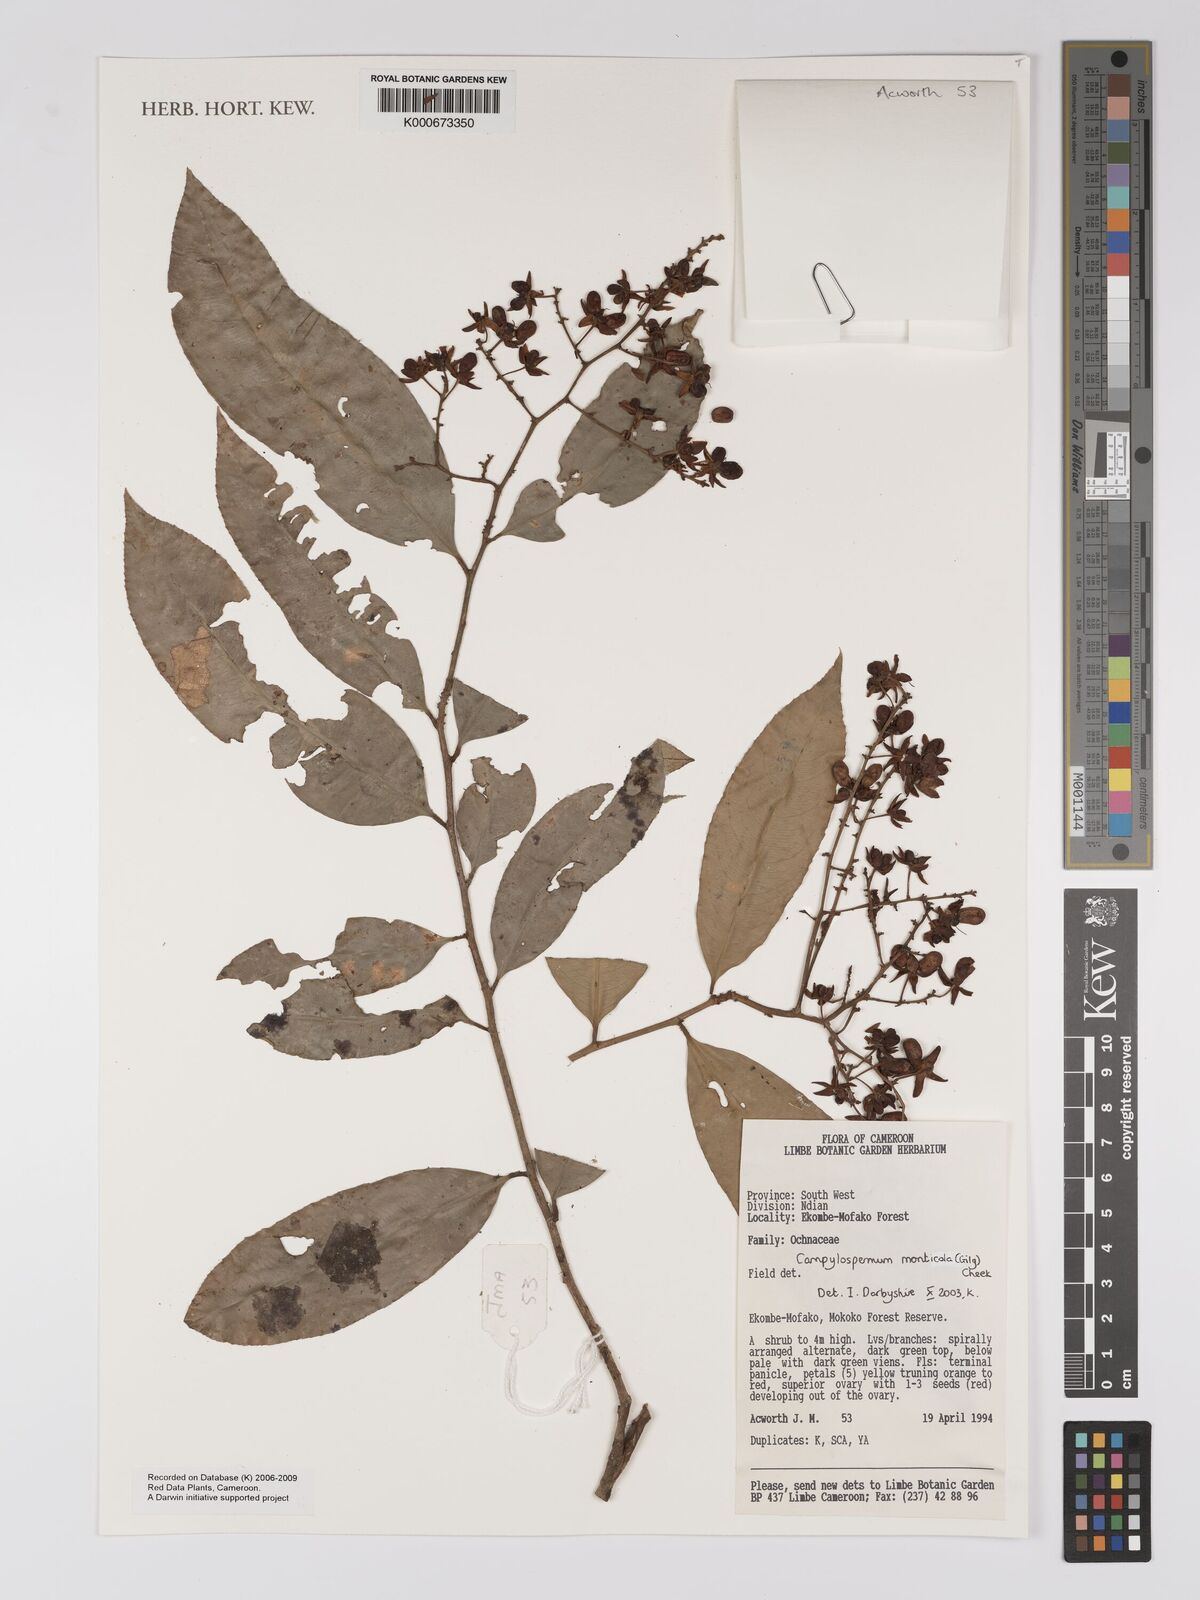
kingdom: Plantae
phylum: Tracheophyta
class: Magnoliopsida
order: Malpighiales
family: Ochnaceae
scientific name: Ochnaceae
